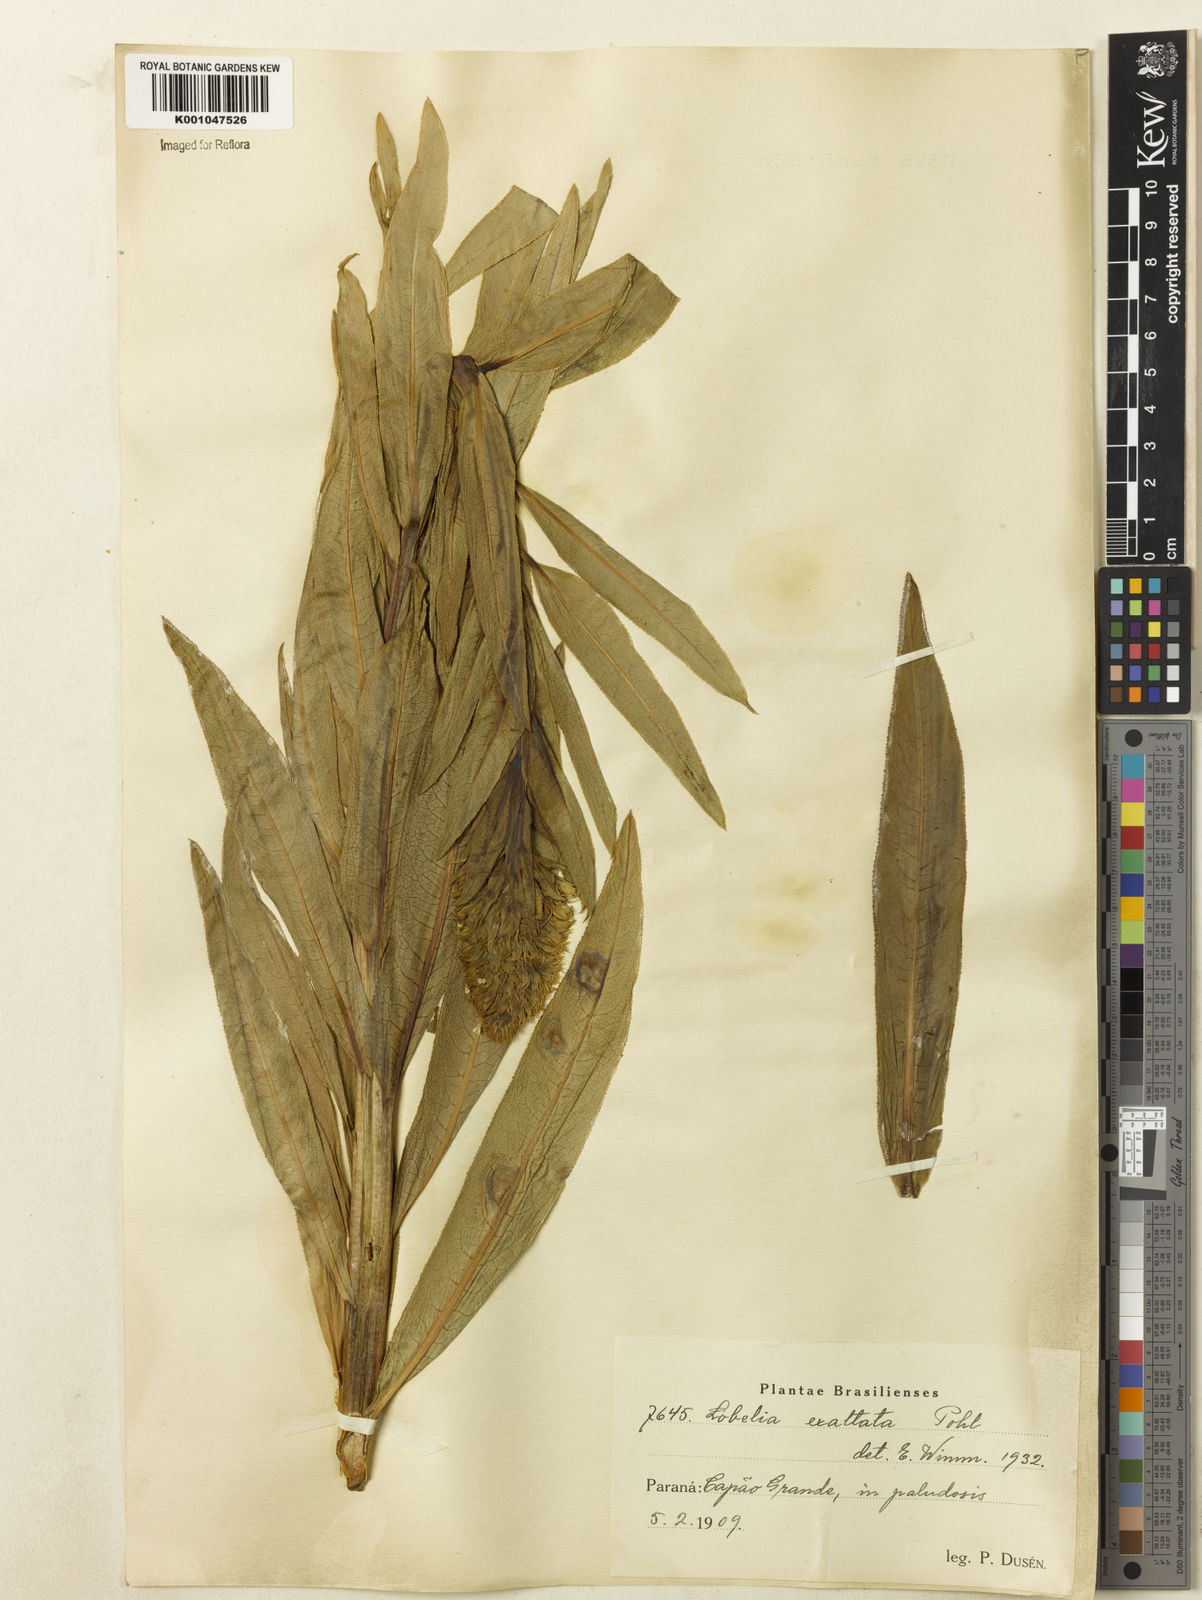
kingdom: Plantae
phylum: Tracheophyta
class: Magnoliopsida
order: Asterales
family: Campanulaceae
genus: Lobelia
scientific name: Lobelia exaltata
